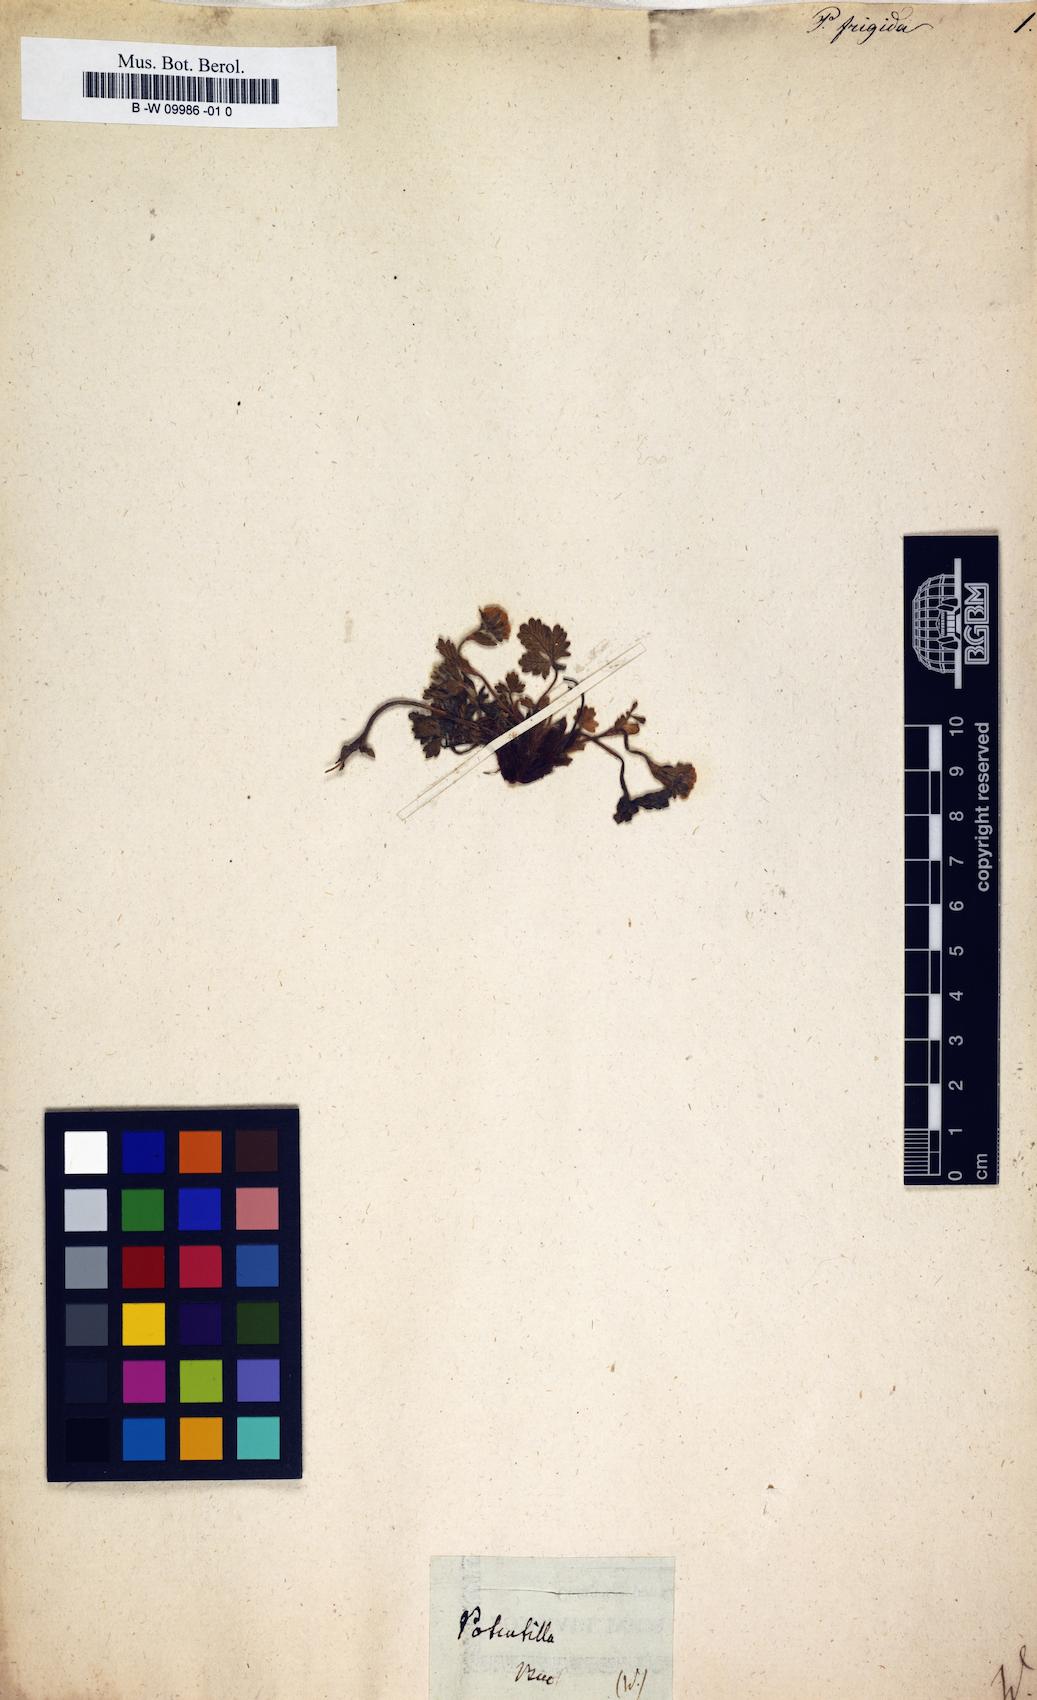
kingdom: Plantae
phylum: Tracheophyta
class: Magnoliopsida
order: Rosales
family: Rosaceae
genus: Potentilla
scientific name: Potentilla frigida
